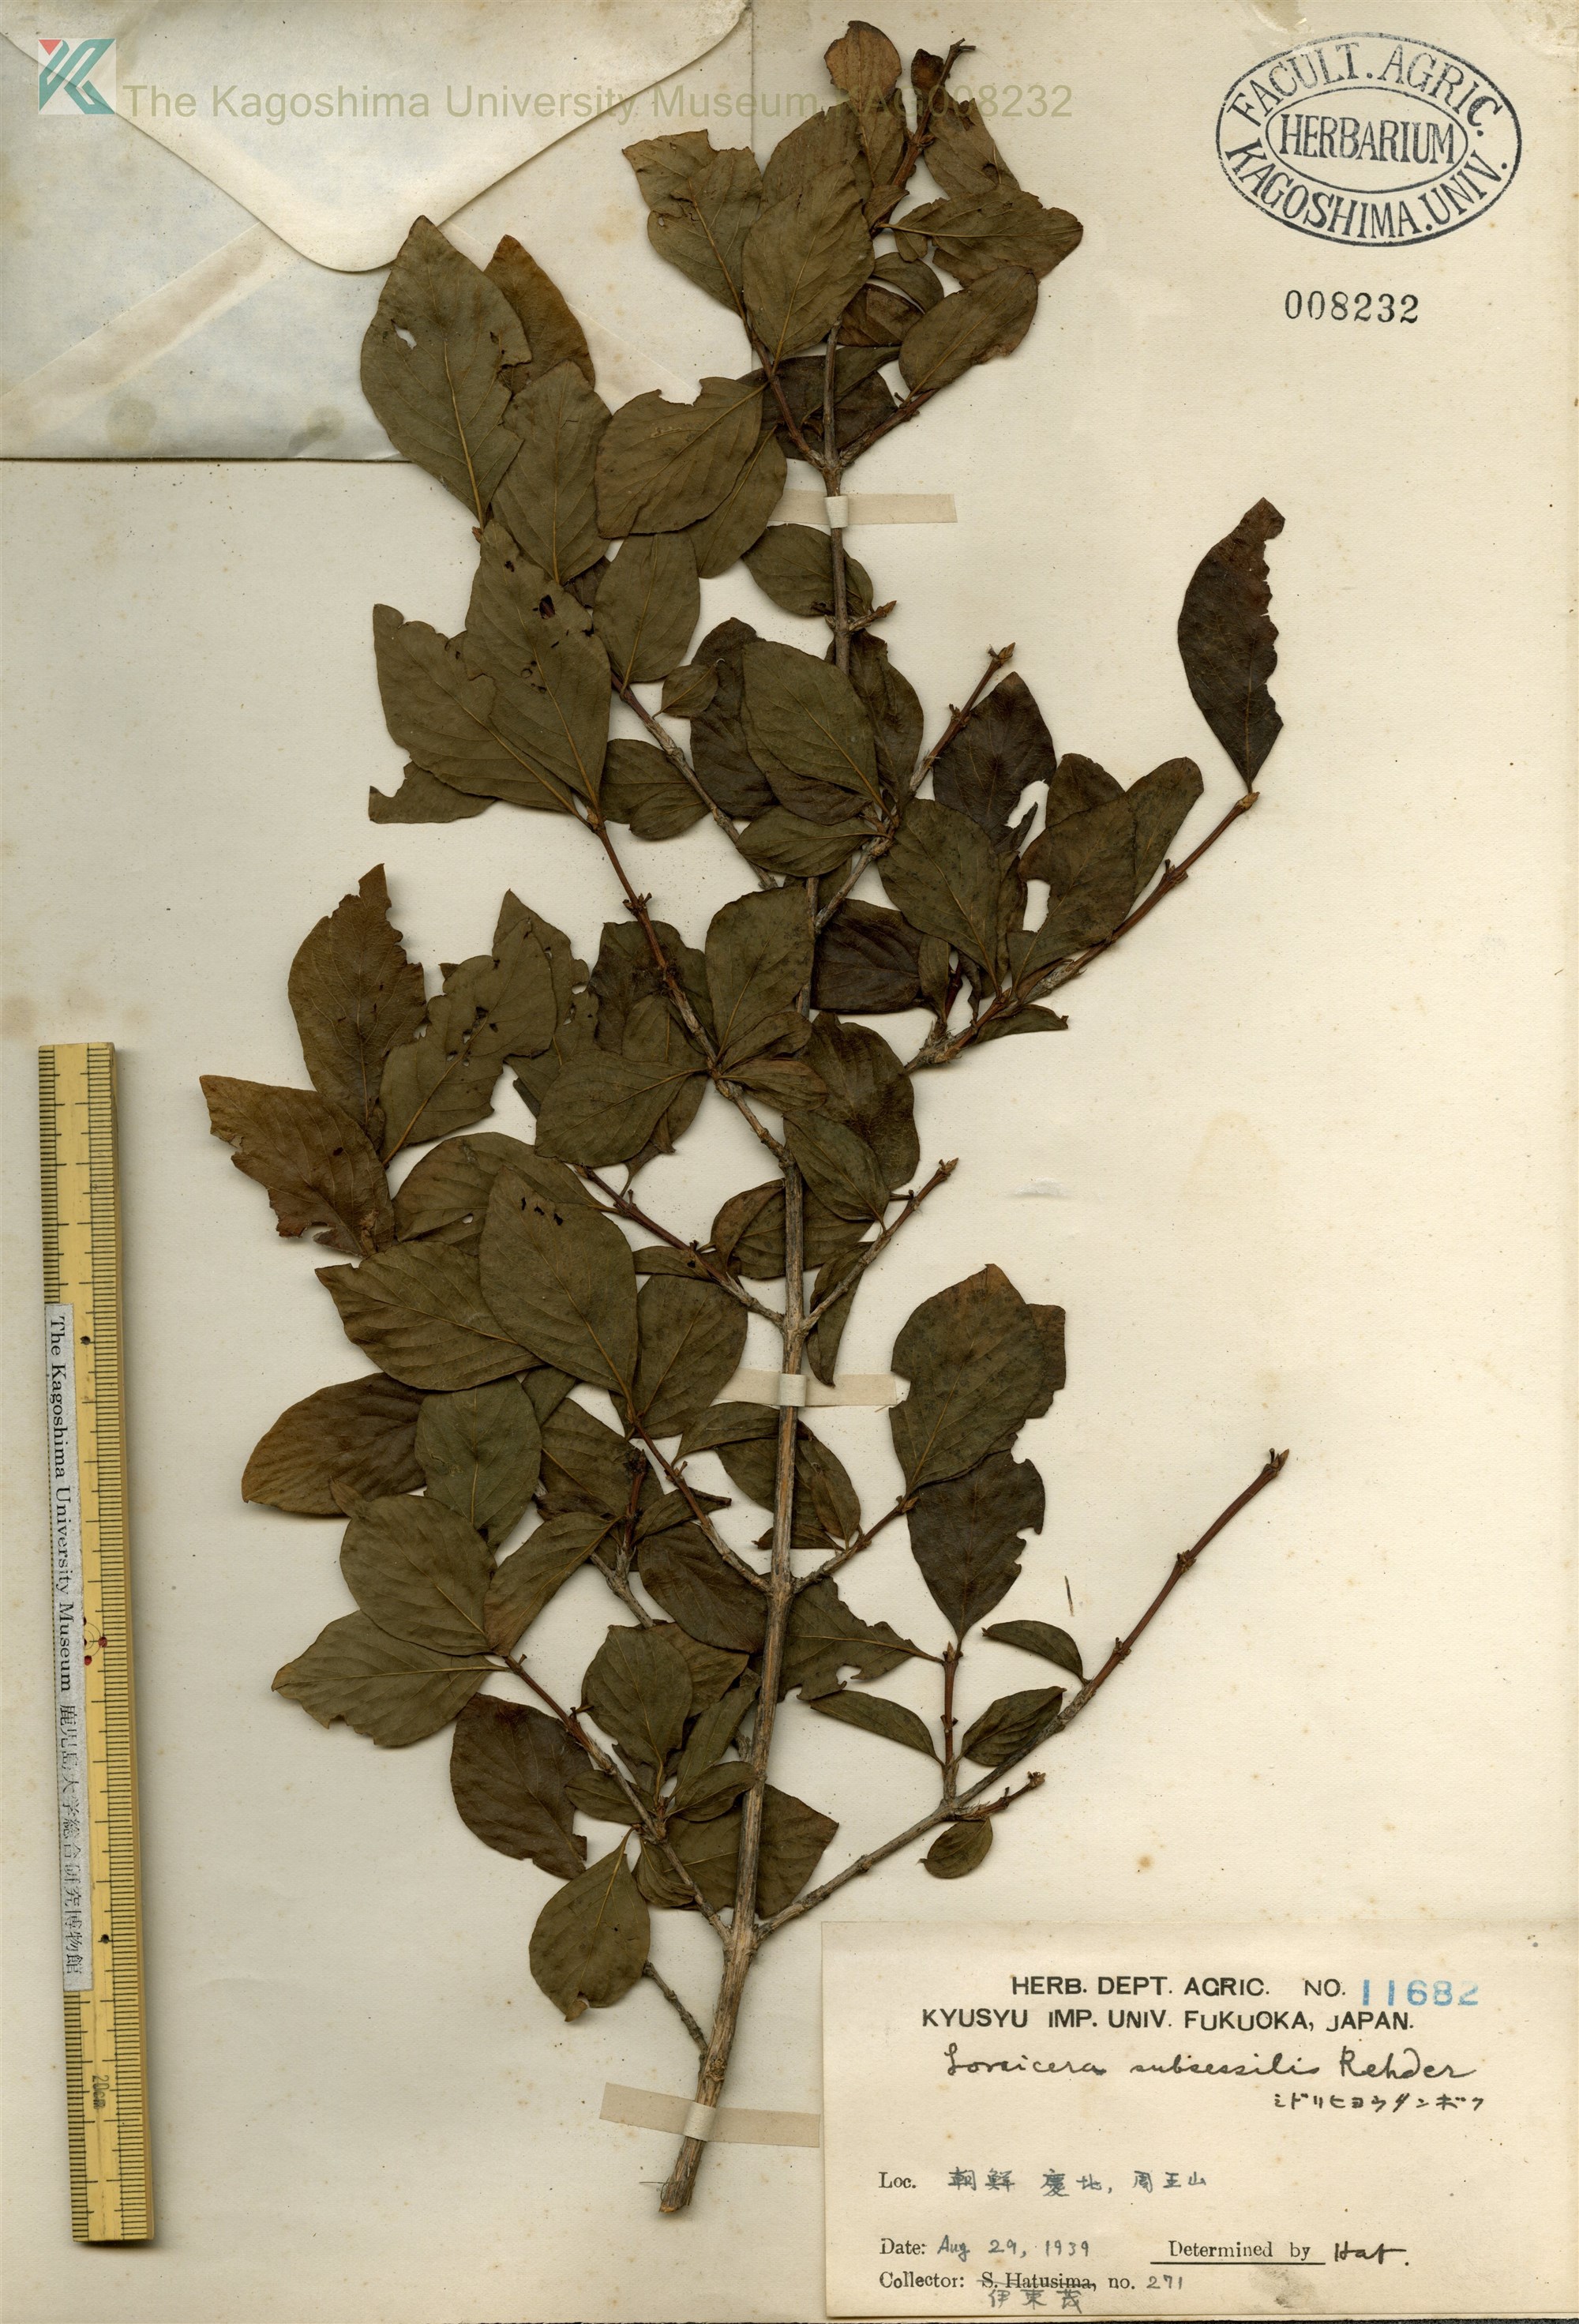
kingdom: Plantae
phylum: Tracheophyta
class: Magnoliopsida
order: Dipsacales
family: Caprifoliaceae
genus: Lonicera
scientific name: Lonicera subsessilis
